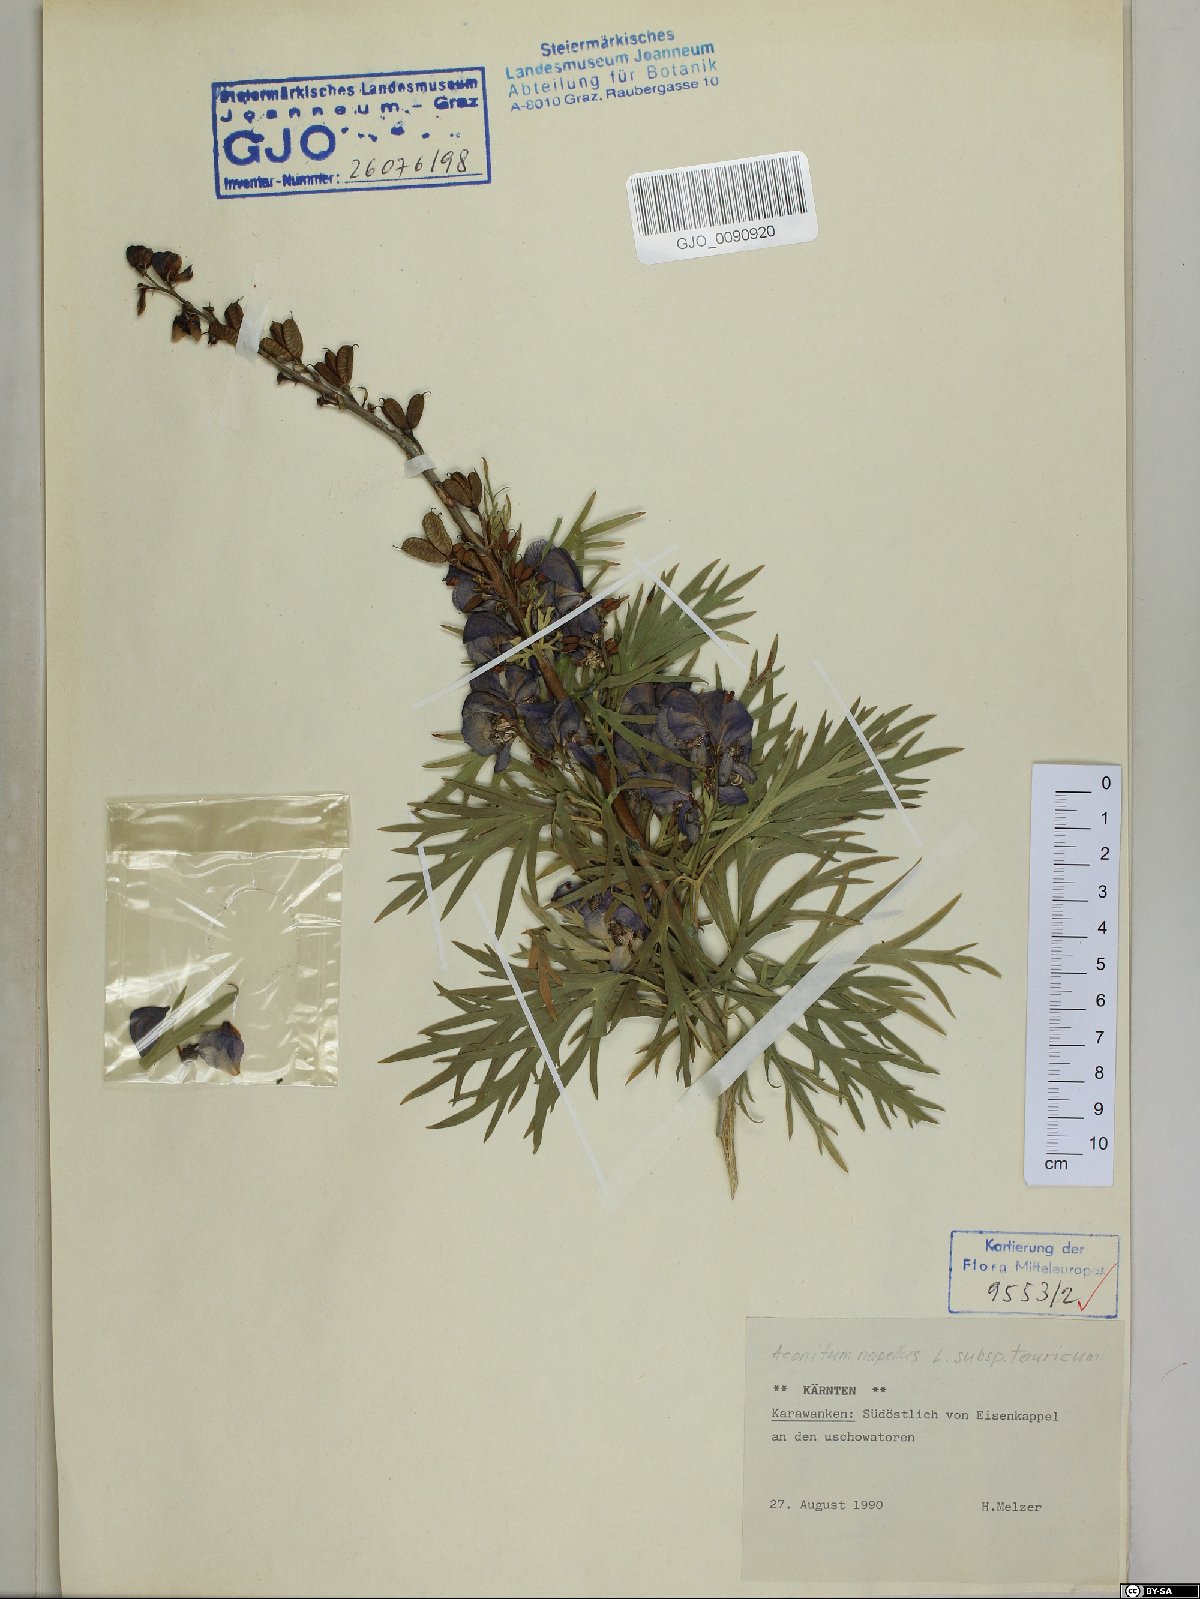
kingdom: Plantae
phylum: Tracheophyta
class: Magnoliopsida
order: Ranunculales
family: Ranunculaceae
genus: Aconitum
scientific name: Aconitum tauricum
